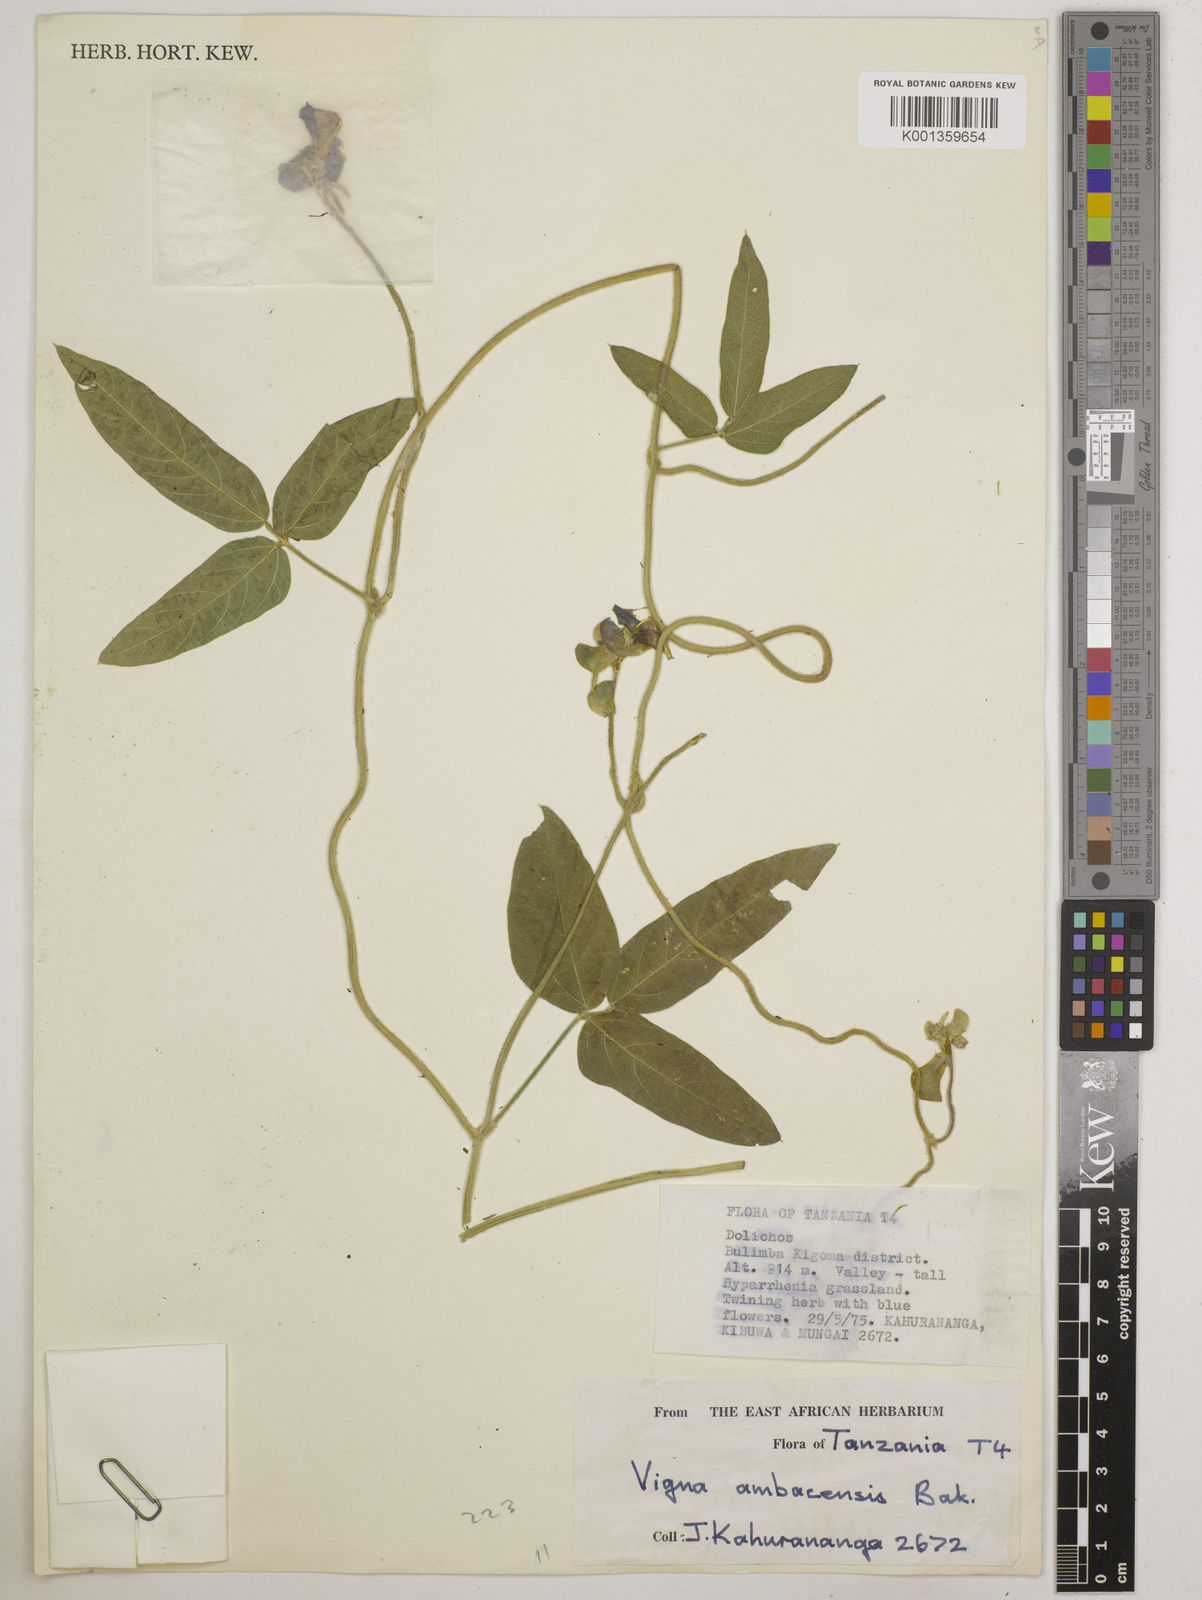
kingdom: Plantae
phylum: Tracheophyta
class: Magnoliopsida
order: Fabales
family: Fabaceae
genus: Vigna
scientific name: Vigna ambacensis
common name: Tsarkiyan zomo
